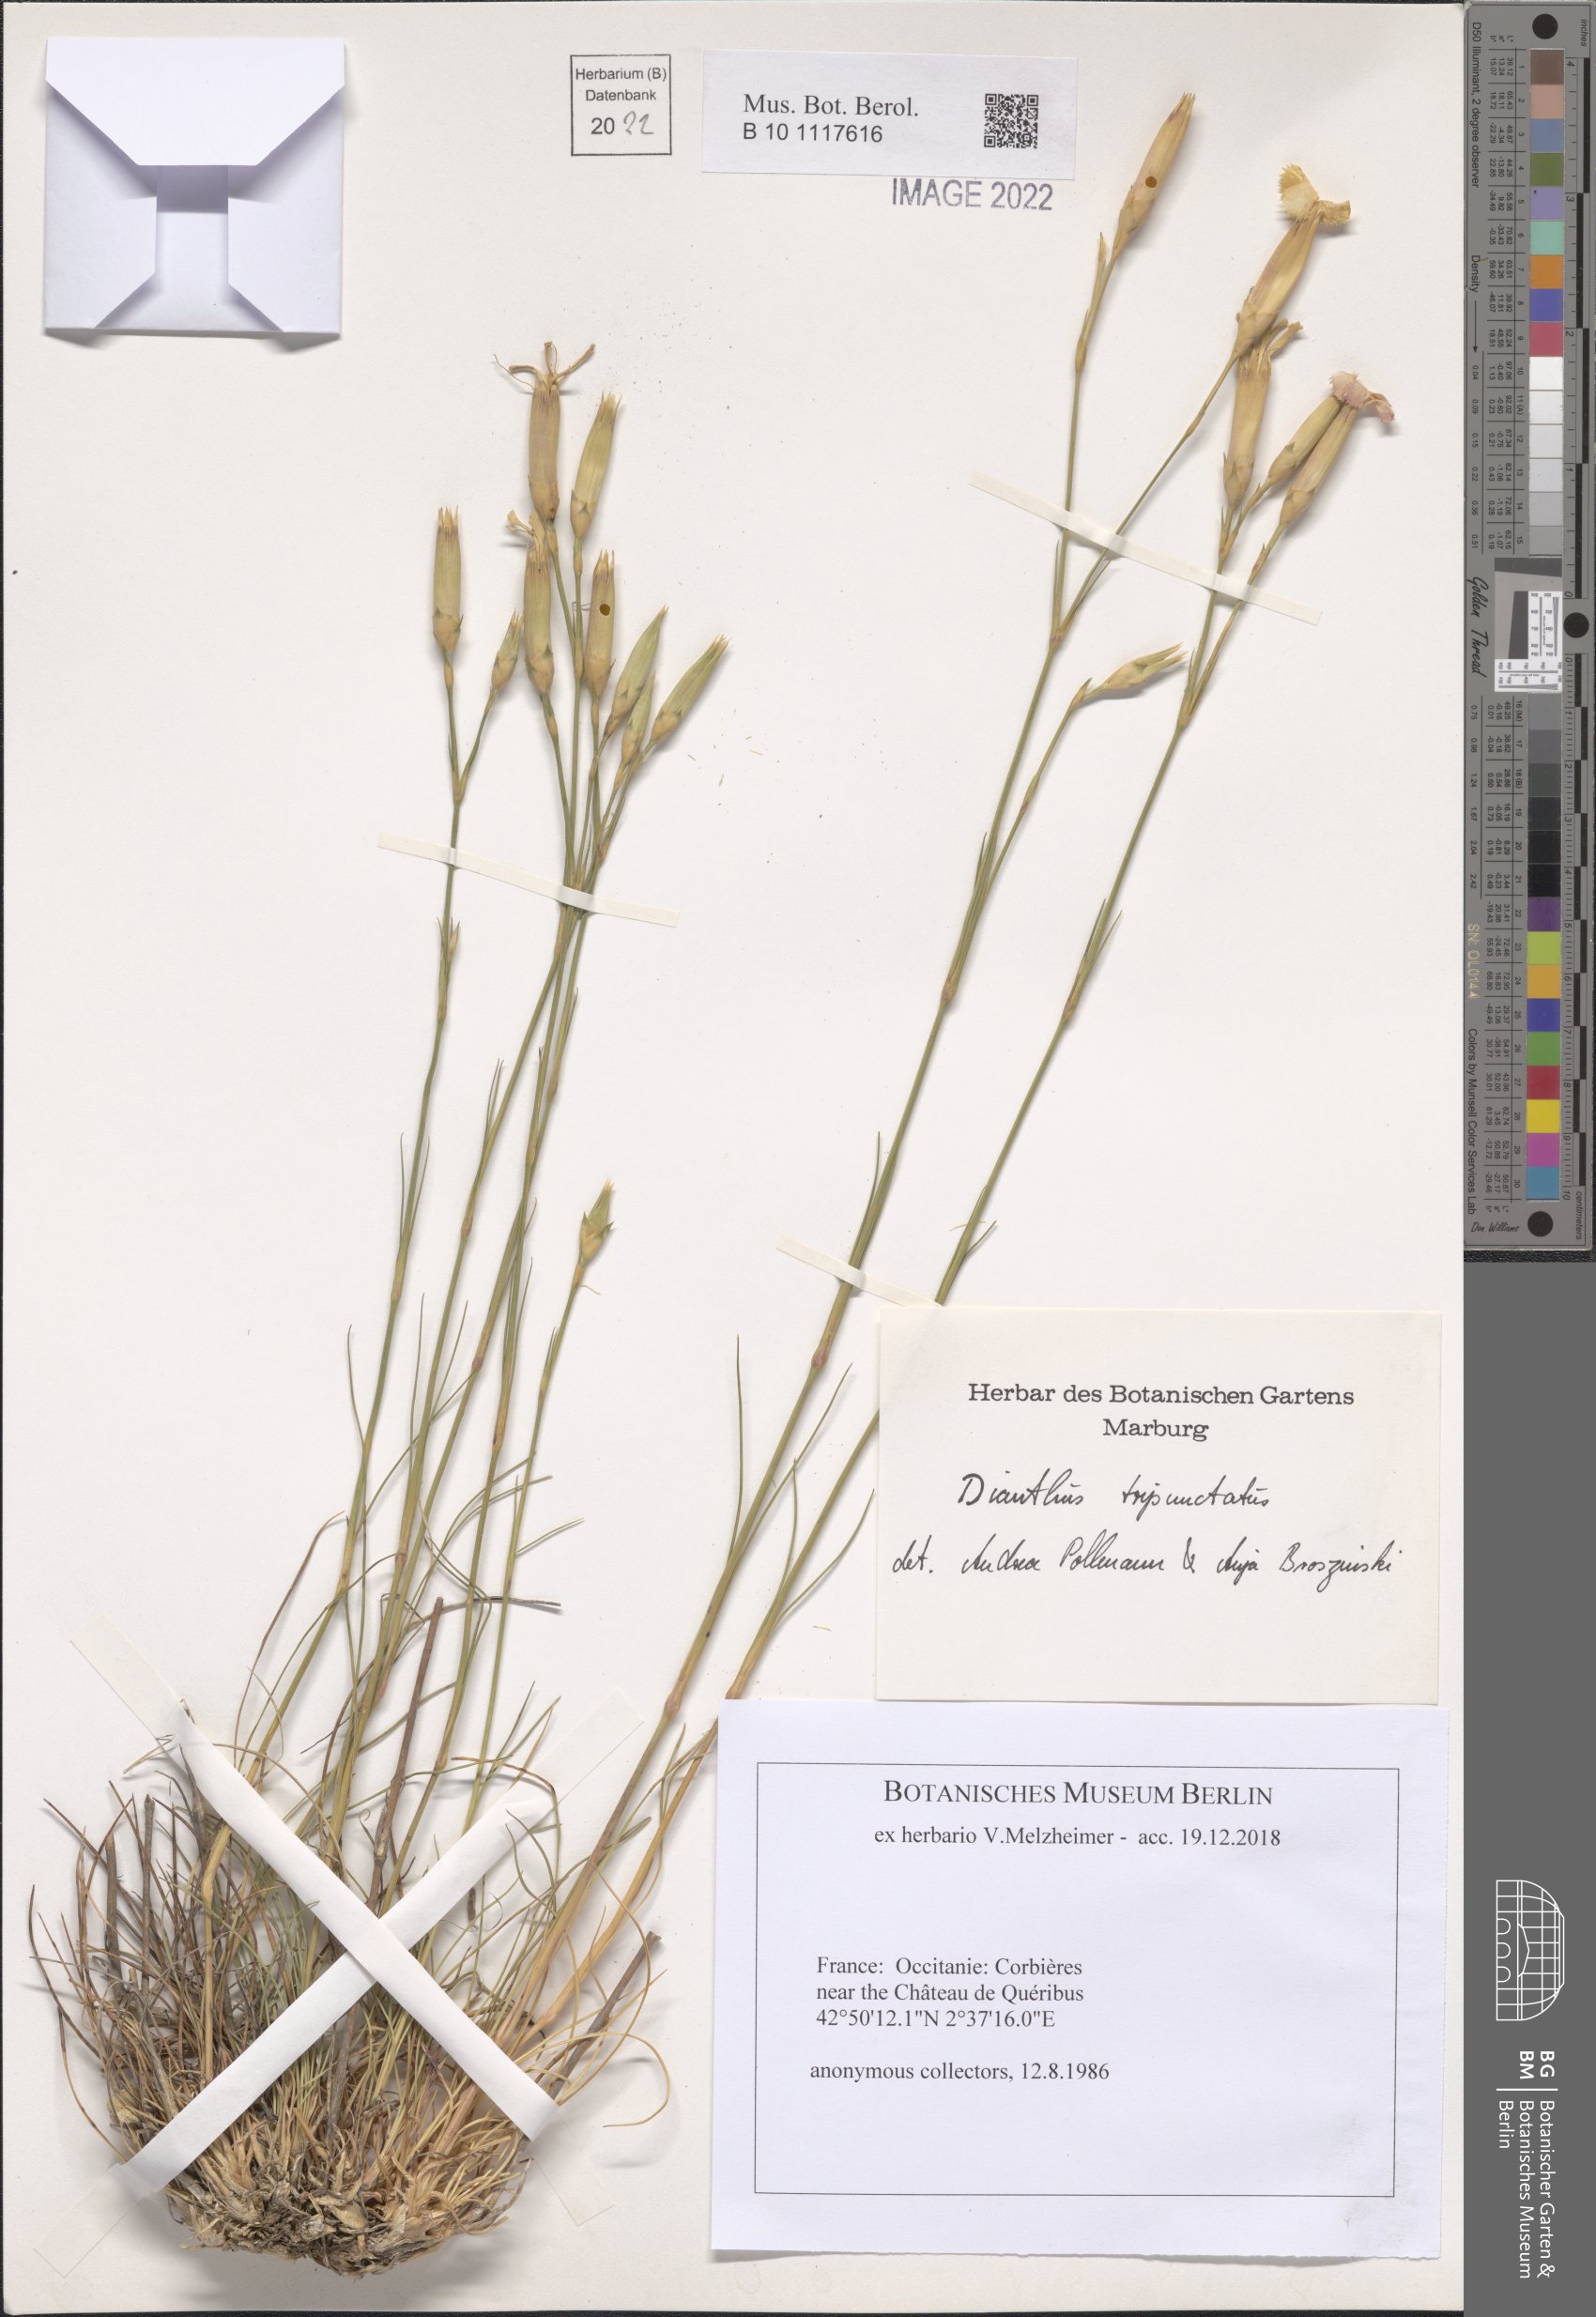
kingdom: Plantae
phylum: Tracheophyta
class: Magnoliopsida
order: Caryophyllales
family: Caryophyllaceae
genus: Dianthus
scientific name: Dianthus tripunctatus
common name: Three-spotted pink
